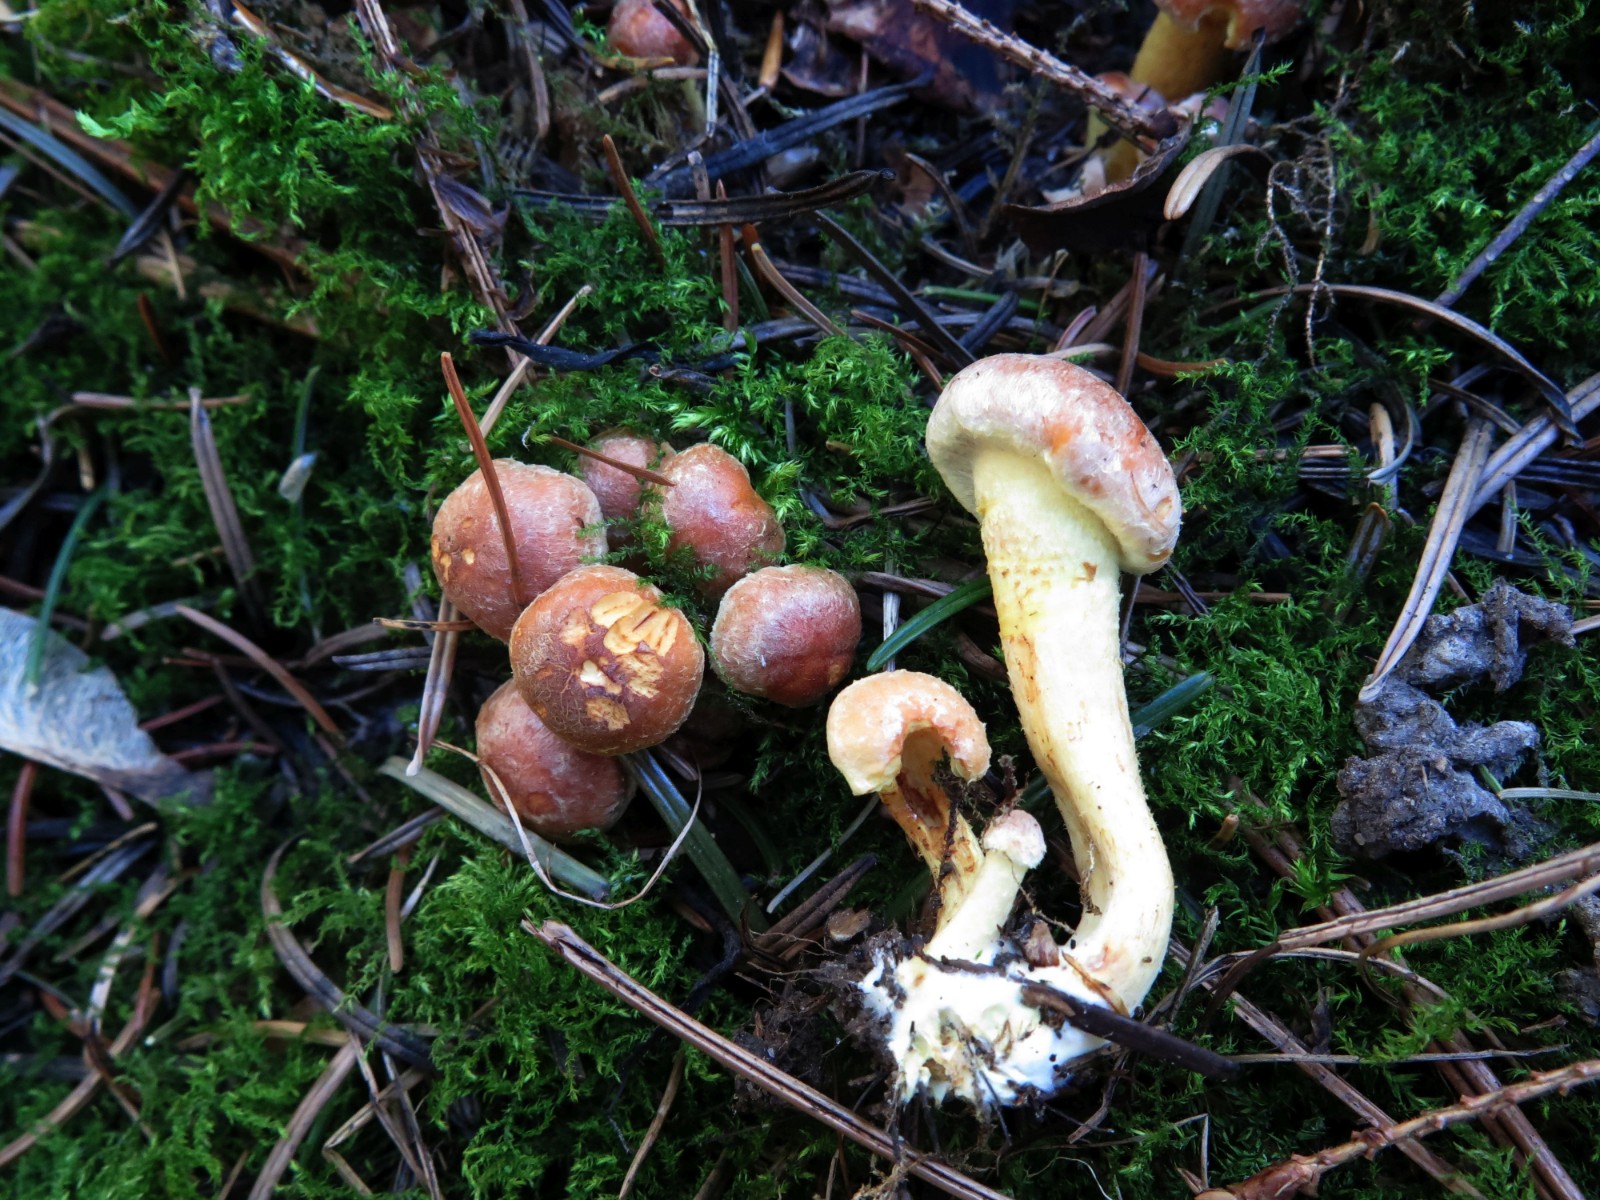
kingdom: Fungi
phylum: Basidiomycota
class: Agaricomycetes
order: Agaricales
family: Strophariaceae
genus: Hypholoma
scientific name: Hypholoma fasciculare
